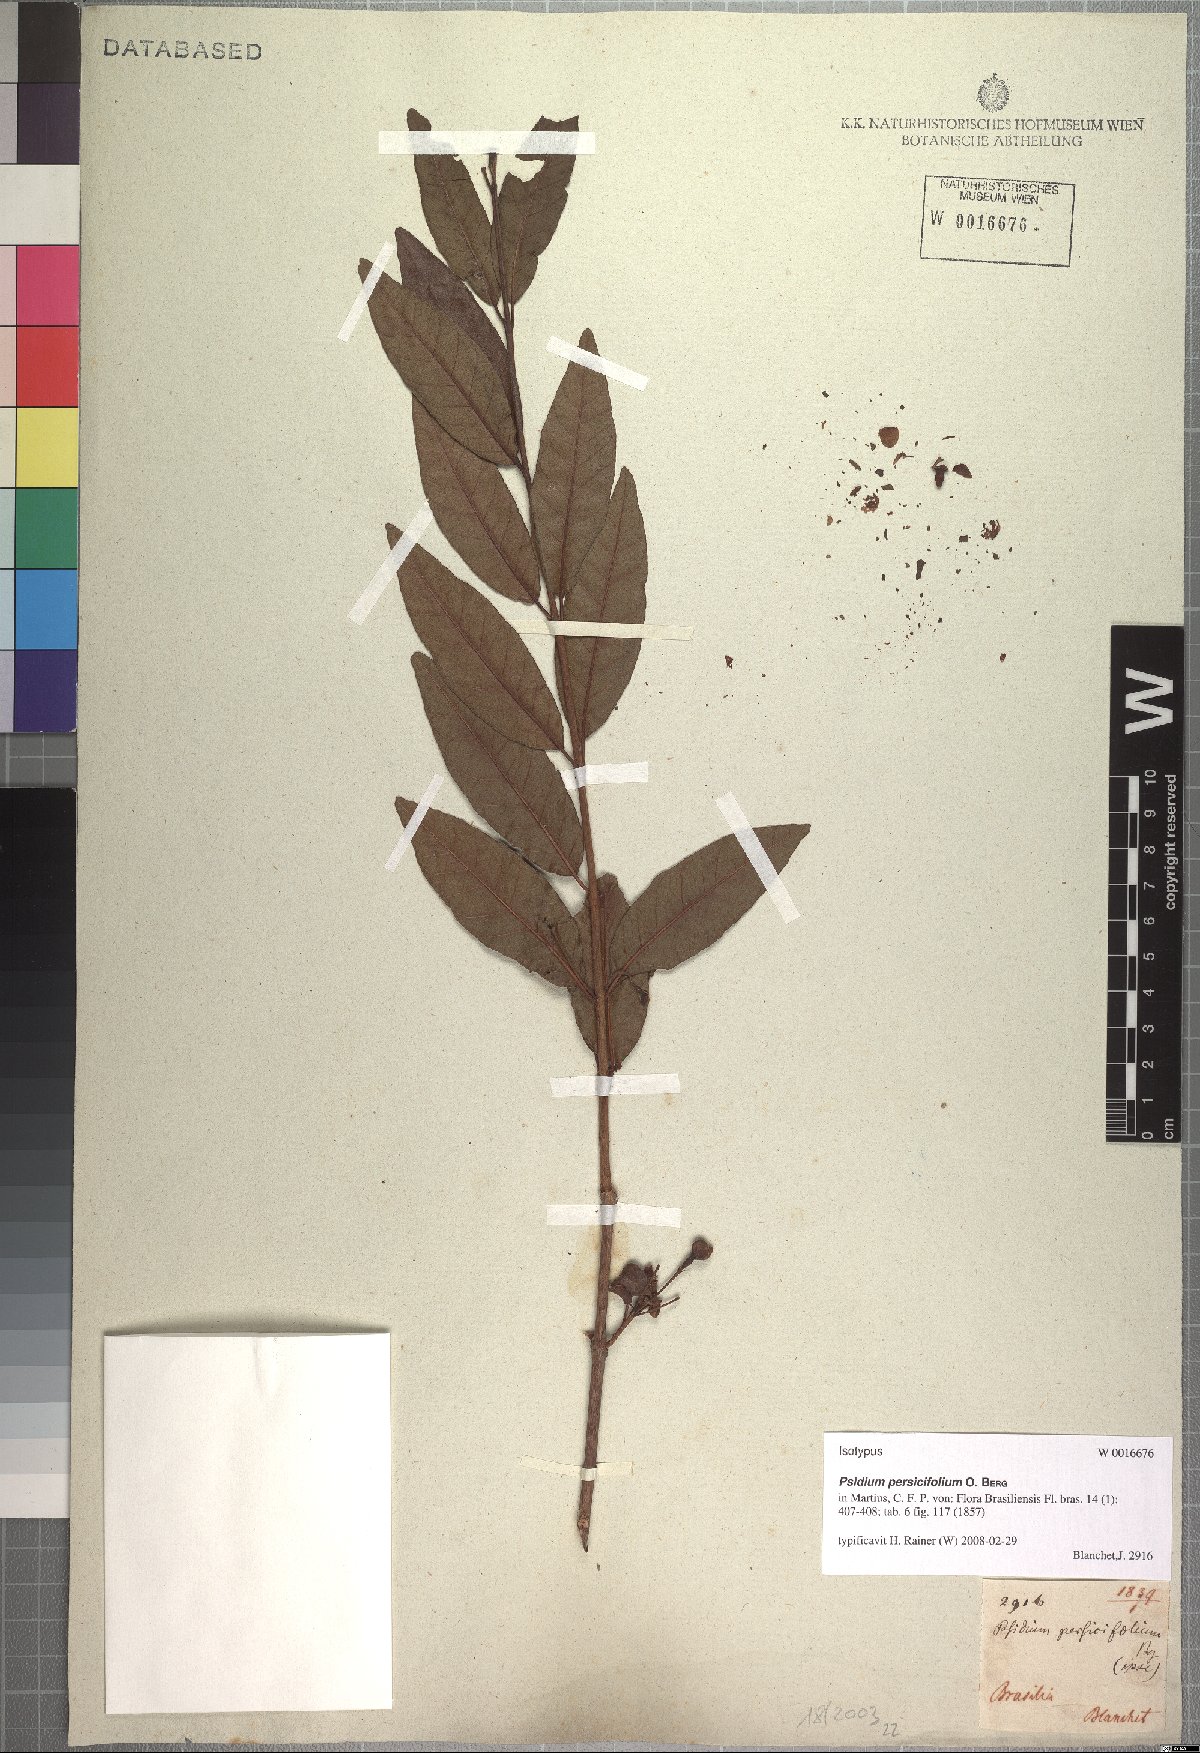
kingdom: Plantae
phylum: Tracheophyta
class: Magnoliopsida
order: Myrtales
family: Myrtaceae
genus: Psidium
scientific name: Psidium striatulum
